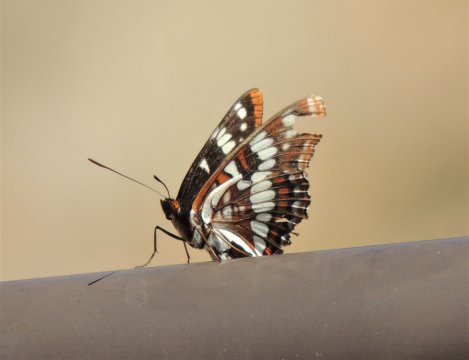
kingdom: Animalia
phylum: Arthropoda
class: Insecta
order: Lepidoptera
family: Nymphalidae
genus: Limenitis
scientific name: Limenitis lorquini
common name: Lorquin's Admiral
